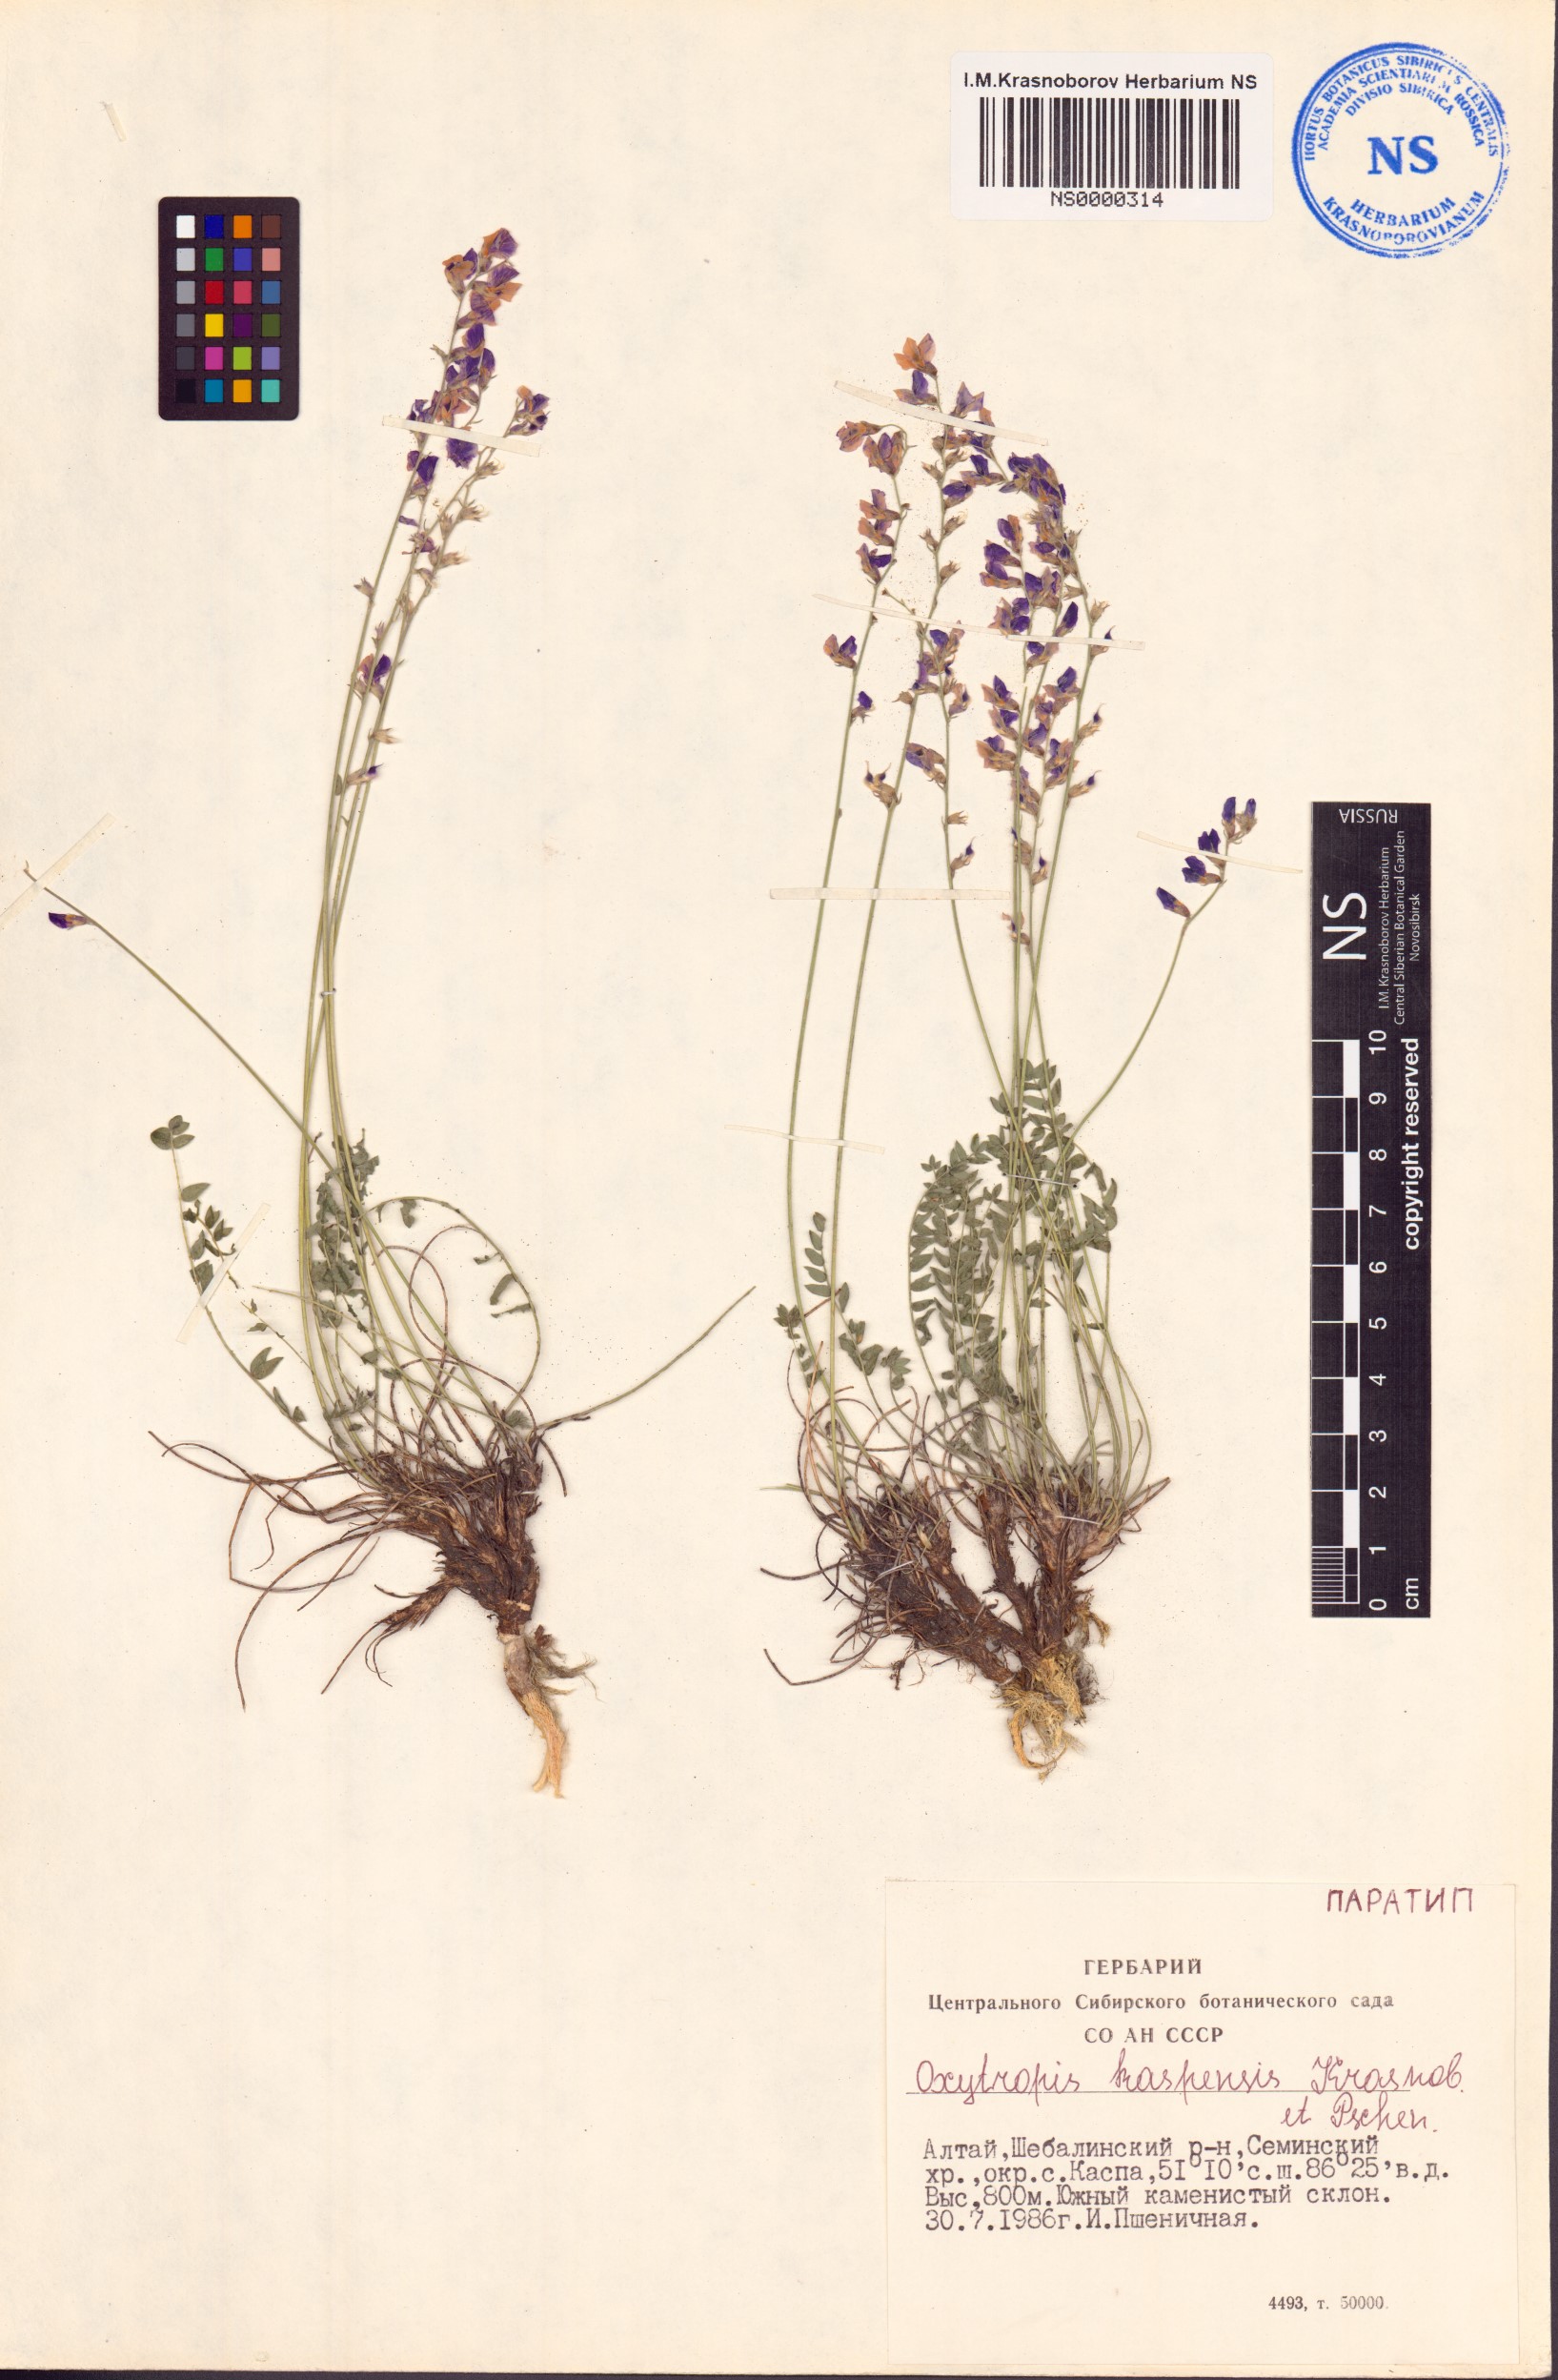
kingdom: Plantae
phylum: Tracheophyta
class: Magnoliopsida
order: Fabales
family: Fabaceae
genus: Oxytropis
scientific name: Oxytropis kaspensis
